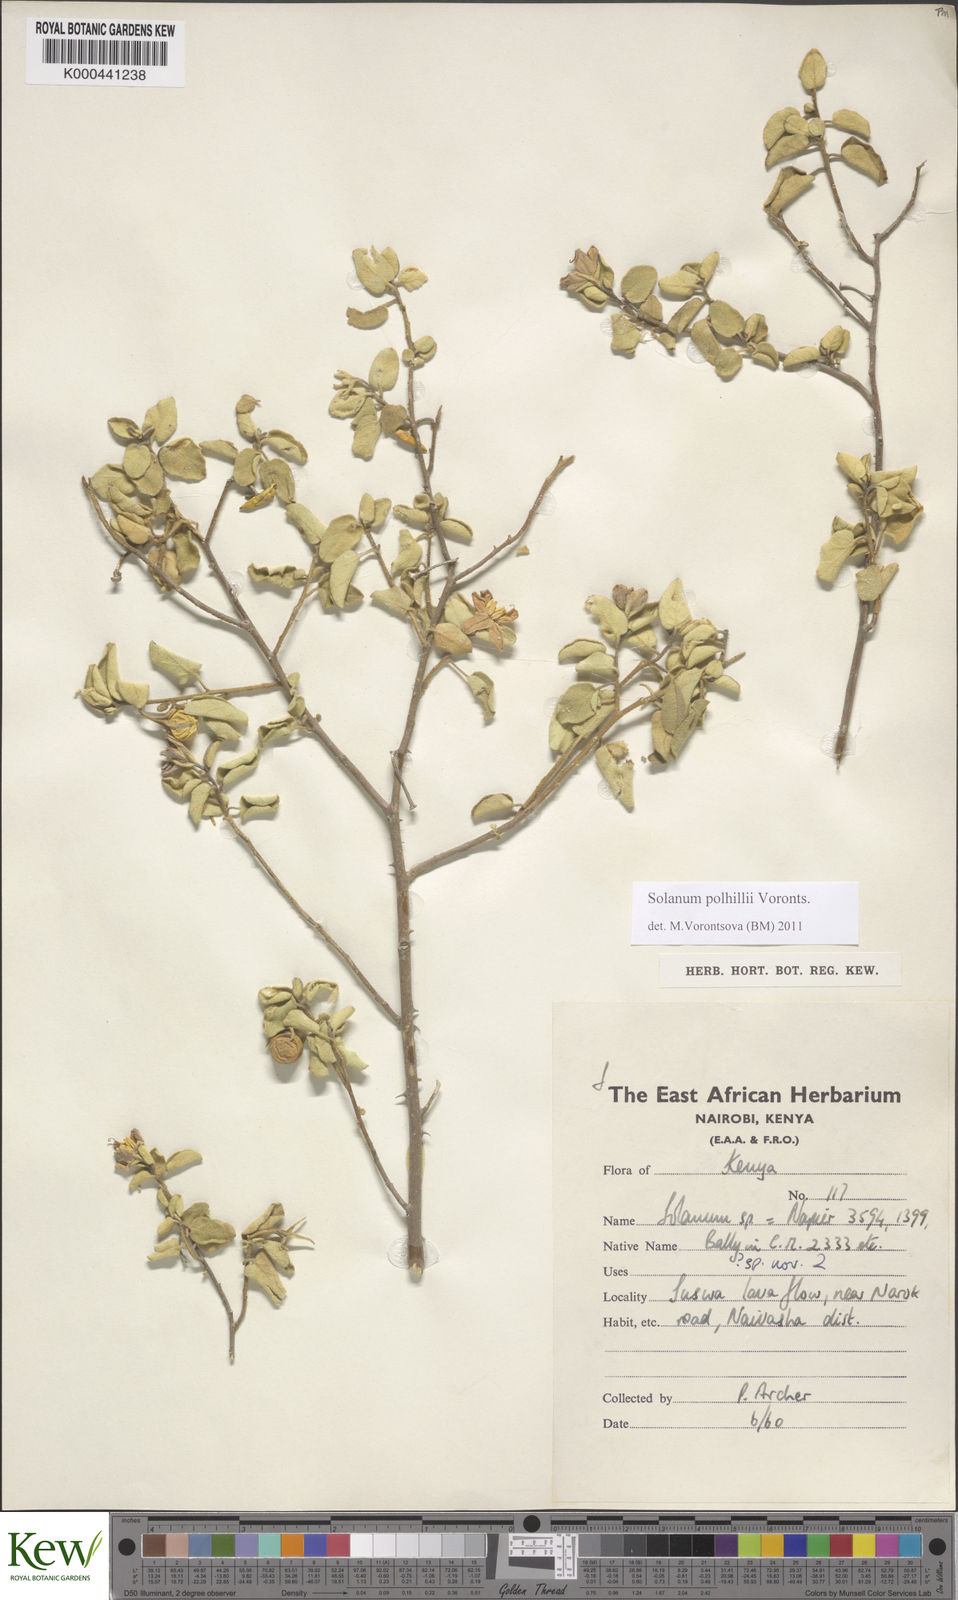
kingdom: Plantae
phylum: Tracheophyta
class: Magnoliopsida
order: Solanales
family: Solanaceae
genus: Solanum
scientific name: Solanum polhillii
